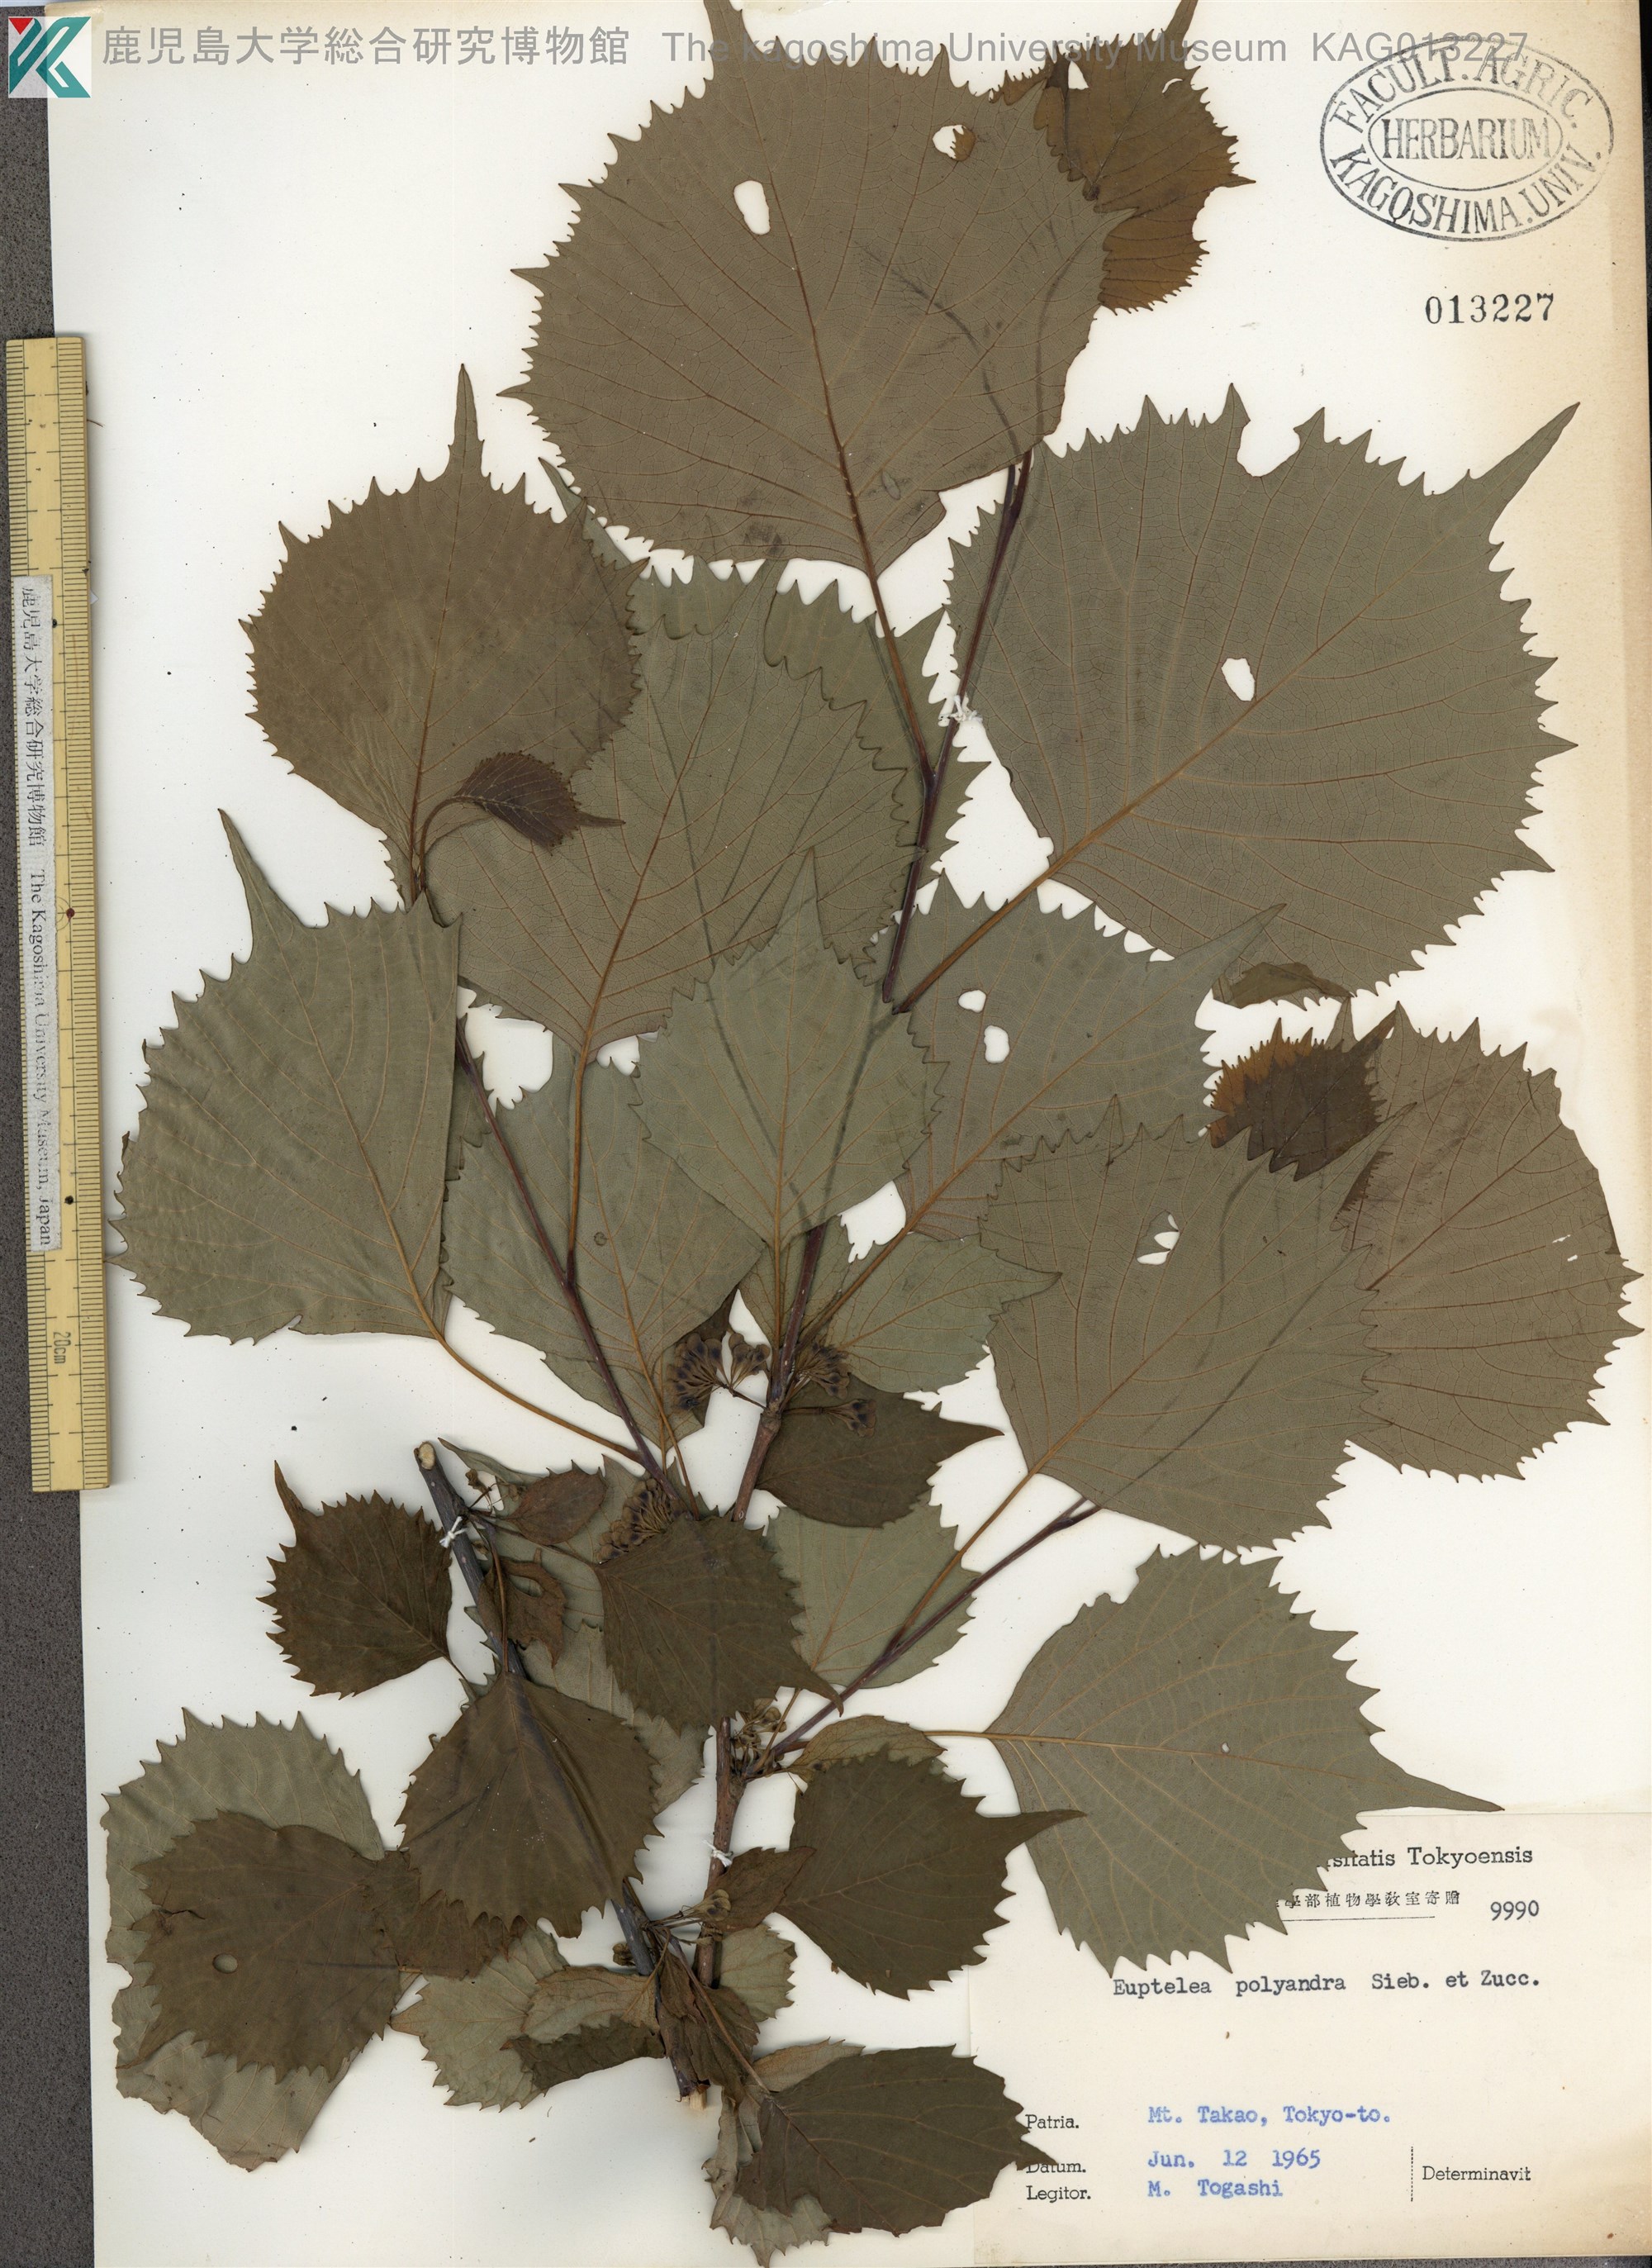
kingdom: Plantae
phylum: Tracheophyta
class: Magnoliopsida
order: Ranunculales
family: Eupteleaceae
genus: Euptelea
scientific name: Euptelea polyandra
